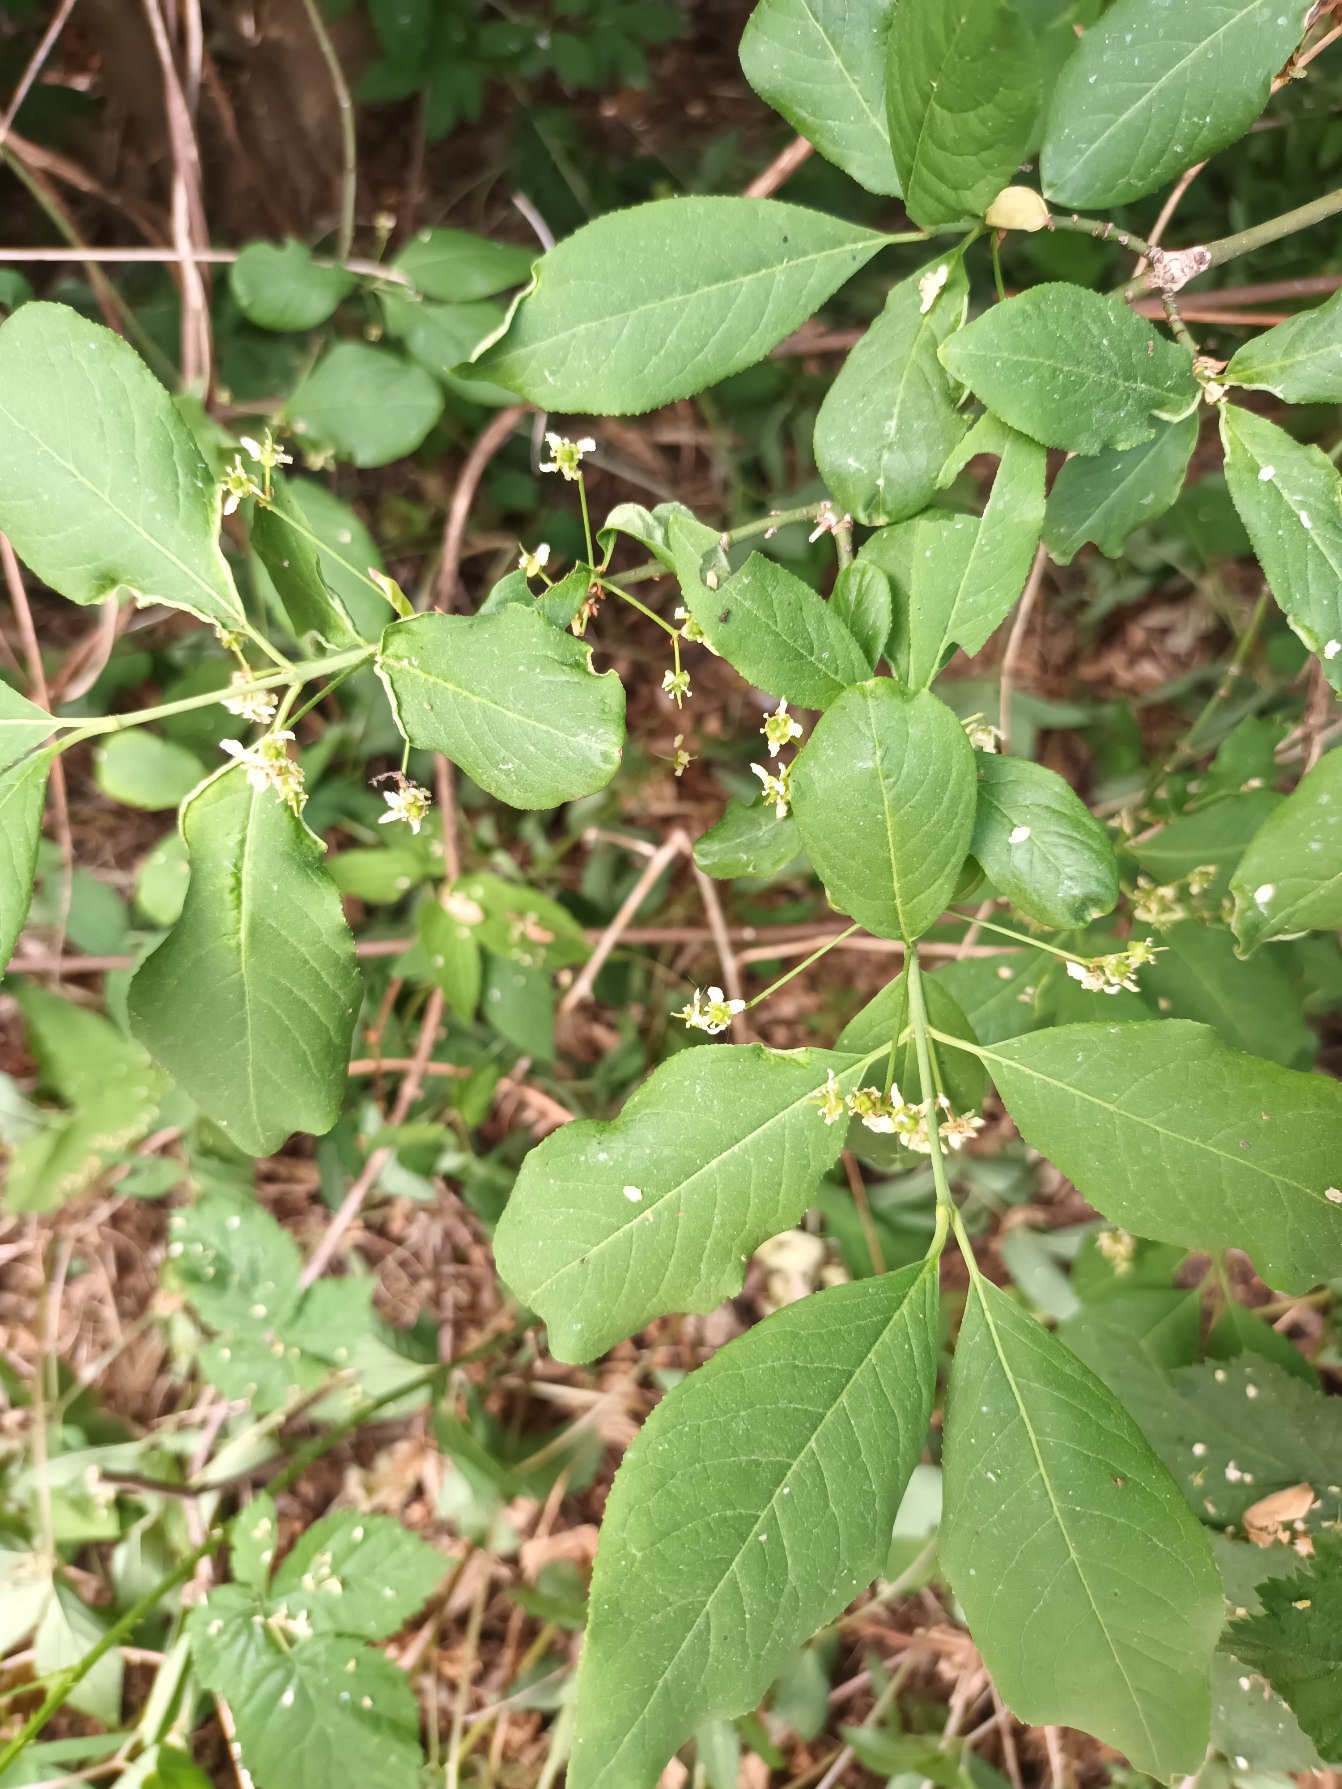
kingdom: Plantae
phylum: Tracheophyta
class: Magnoliopsida
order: Celastrales
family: Celastraceae
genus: Euonymus
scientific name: Euonymus europaeus
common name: Benved
